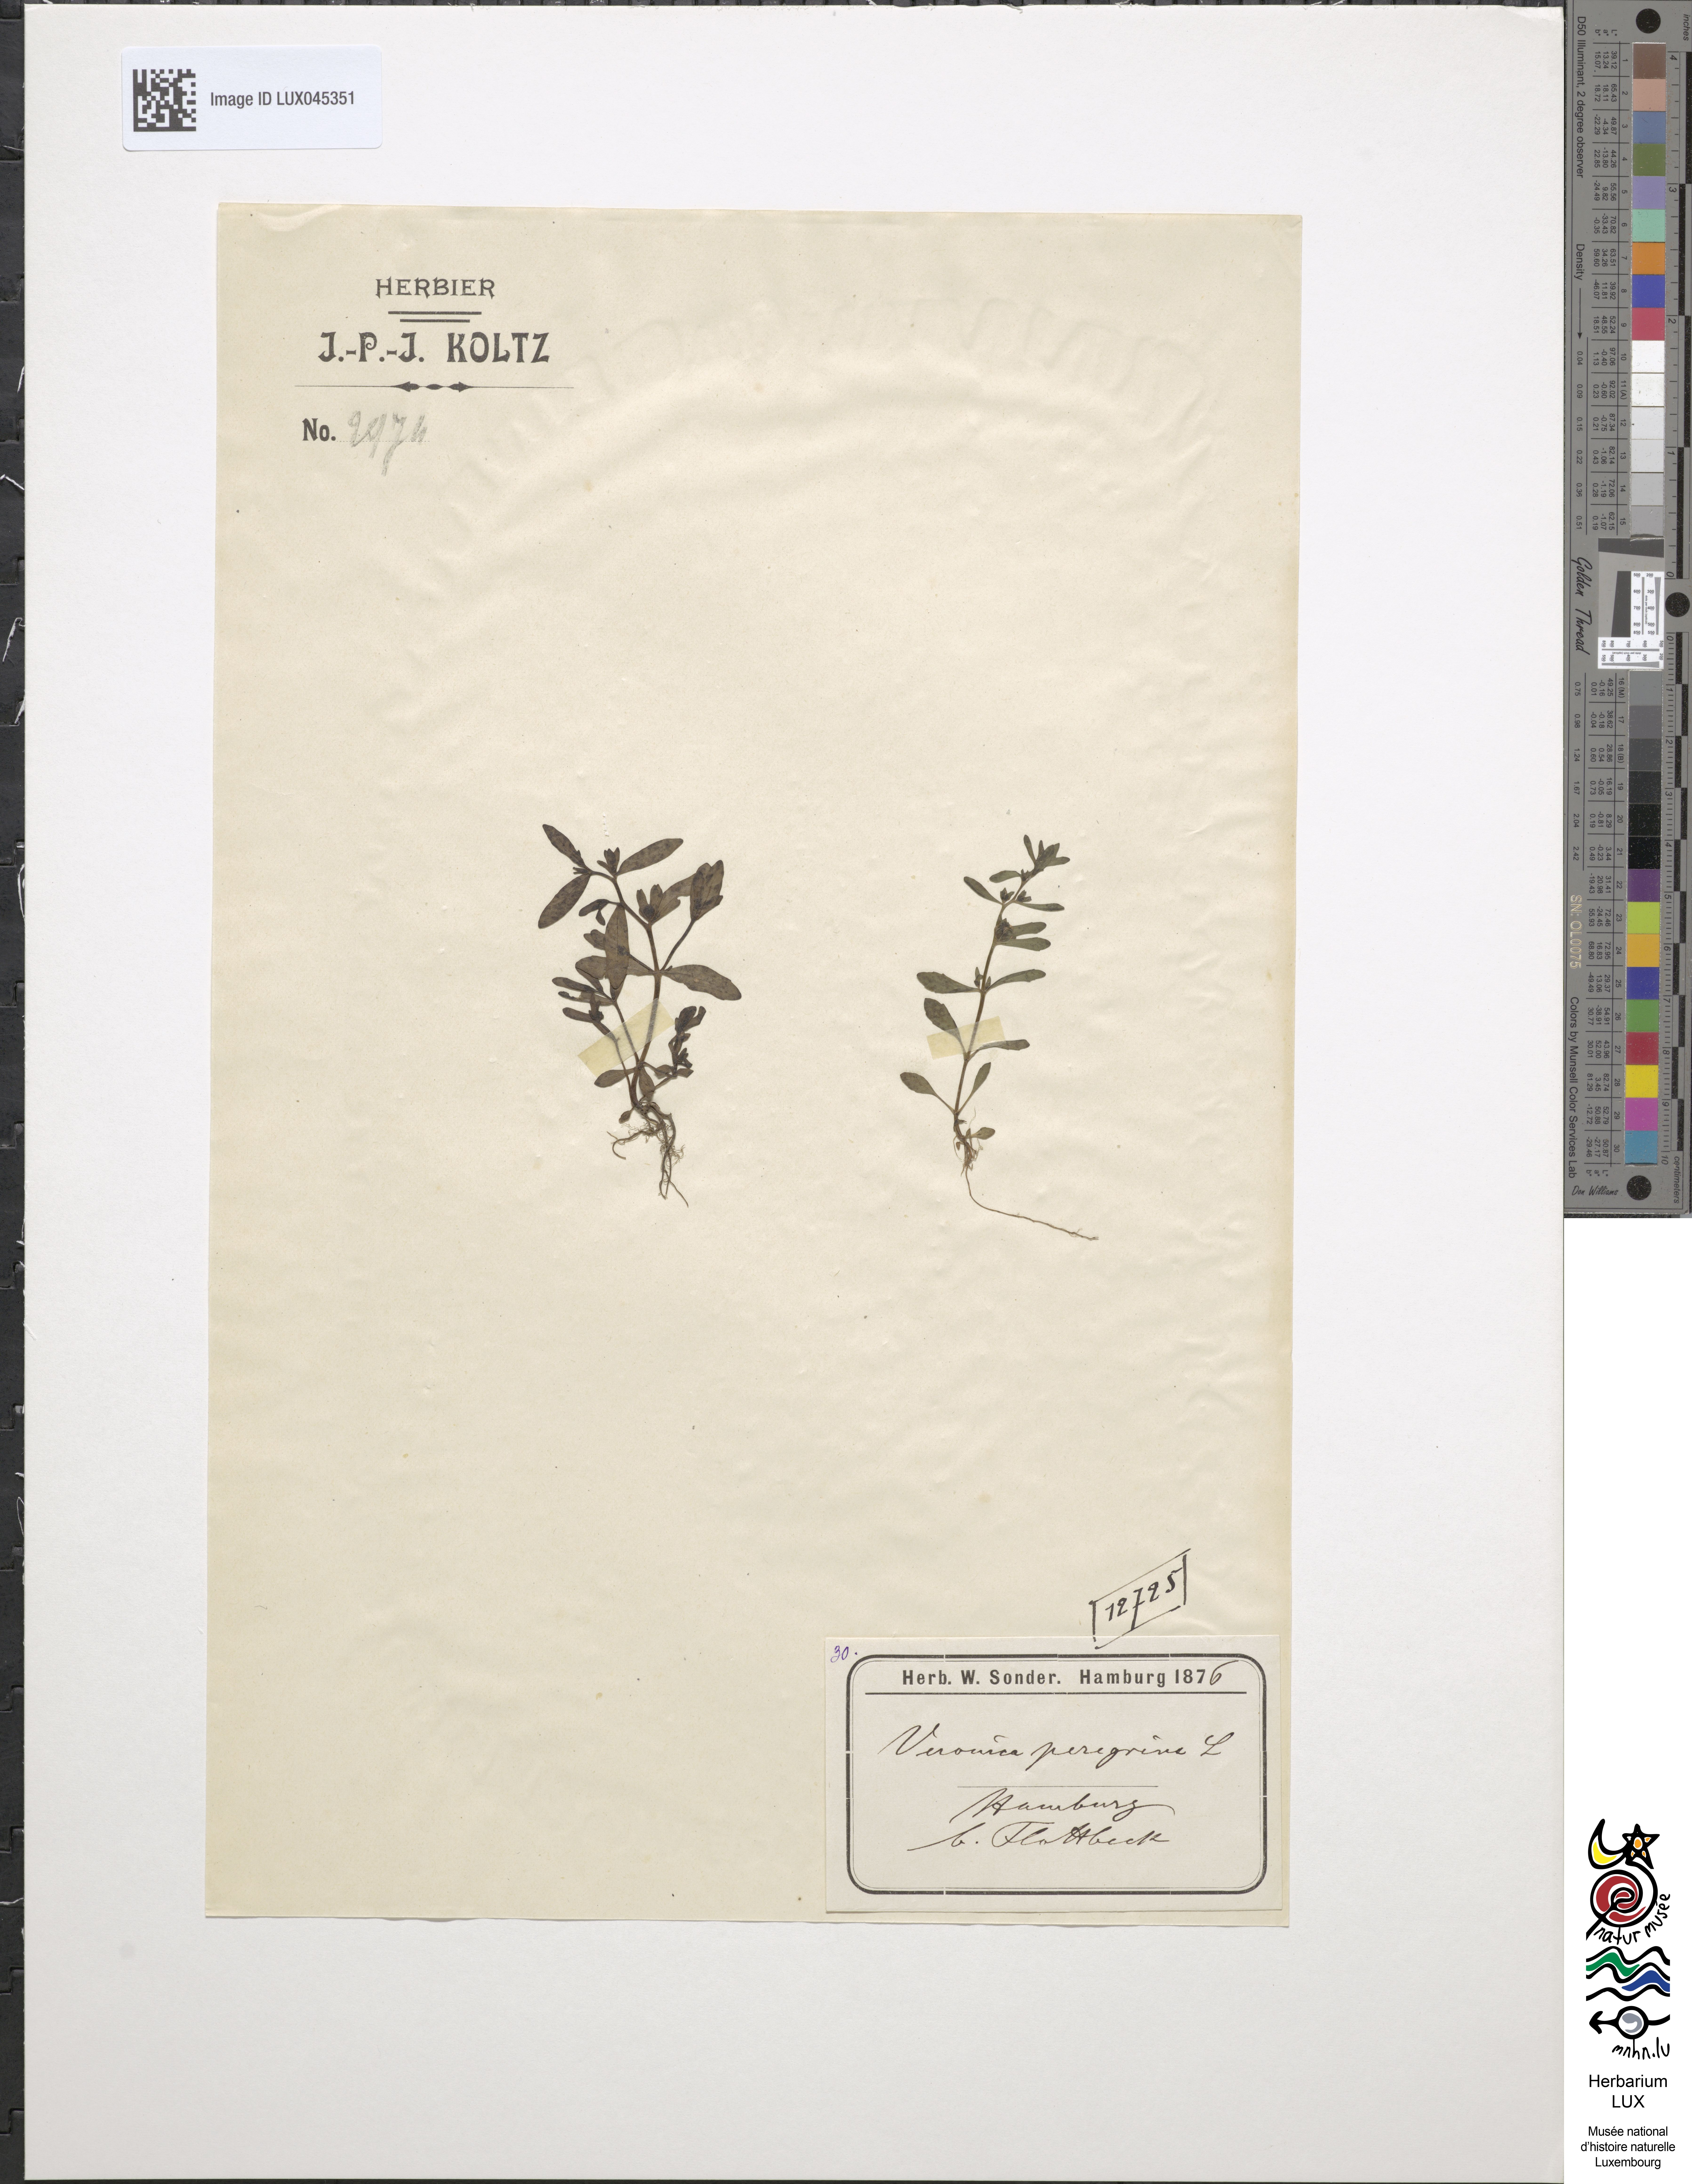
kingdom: Plantae
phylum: Tracheophyta
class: Magnoliopsida
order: Lamiales
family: Plantaginaceae
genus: Veronica
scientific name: Veronica peregrina
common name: Neckweed
